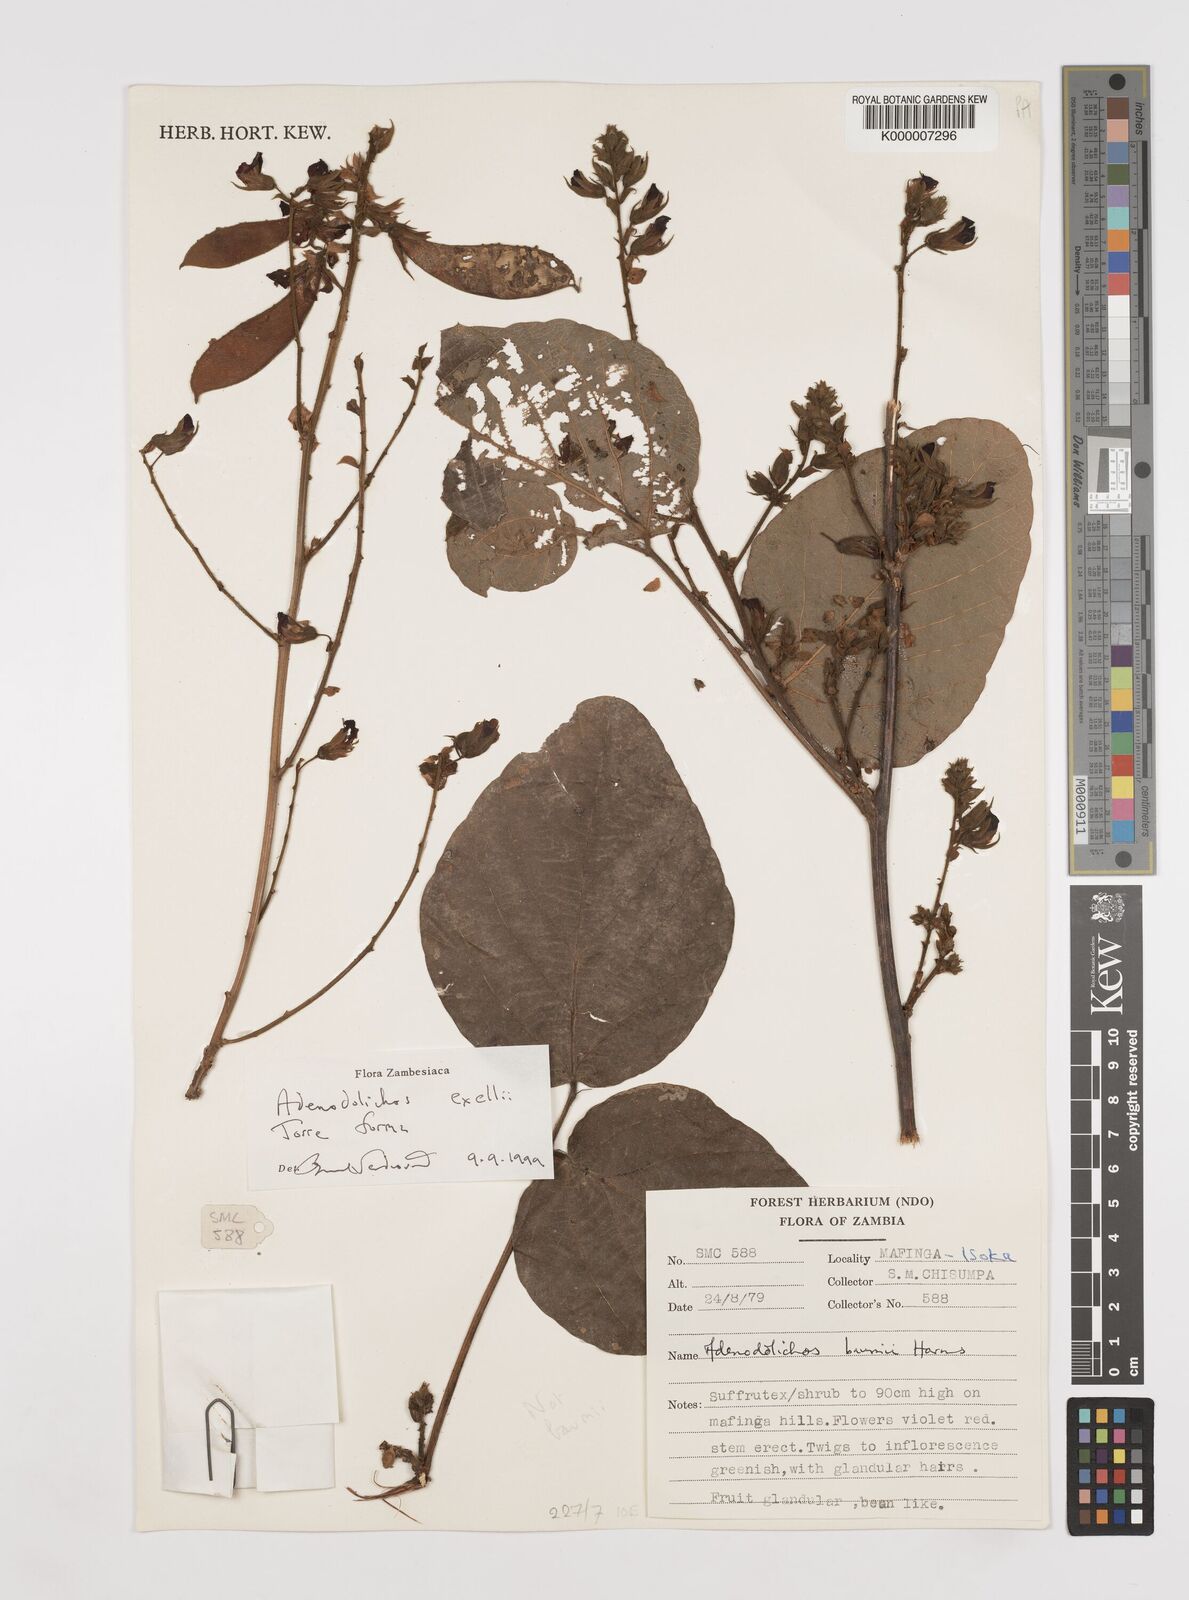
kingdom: Plantae
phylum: Tracheophyta
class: Magnoliopsida
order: Fabales
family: Fabaceae
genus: Adenodolichos
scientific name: Adenodolichos exellii
